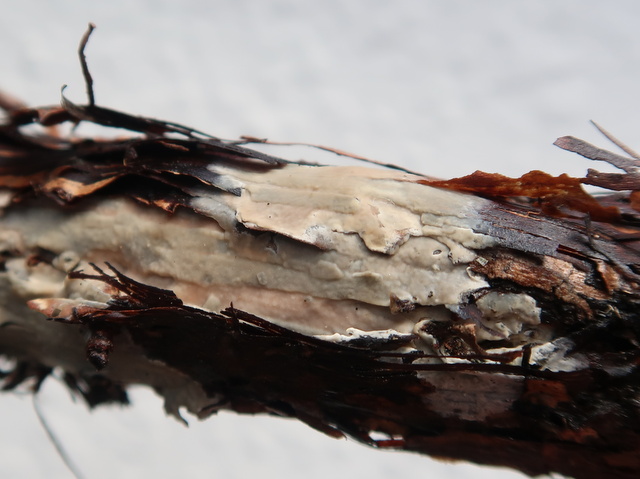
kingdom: Fungi
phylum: Basidiomycota
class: Agaricomycetes
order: Agaricales
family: Radulomycetaceae
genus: Radulomyces
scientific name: Radulomyces confluens
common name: glat naftalinskind
